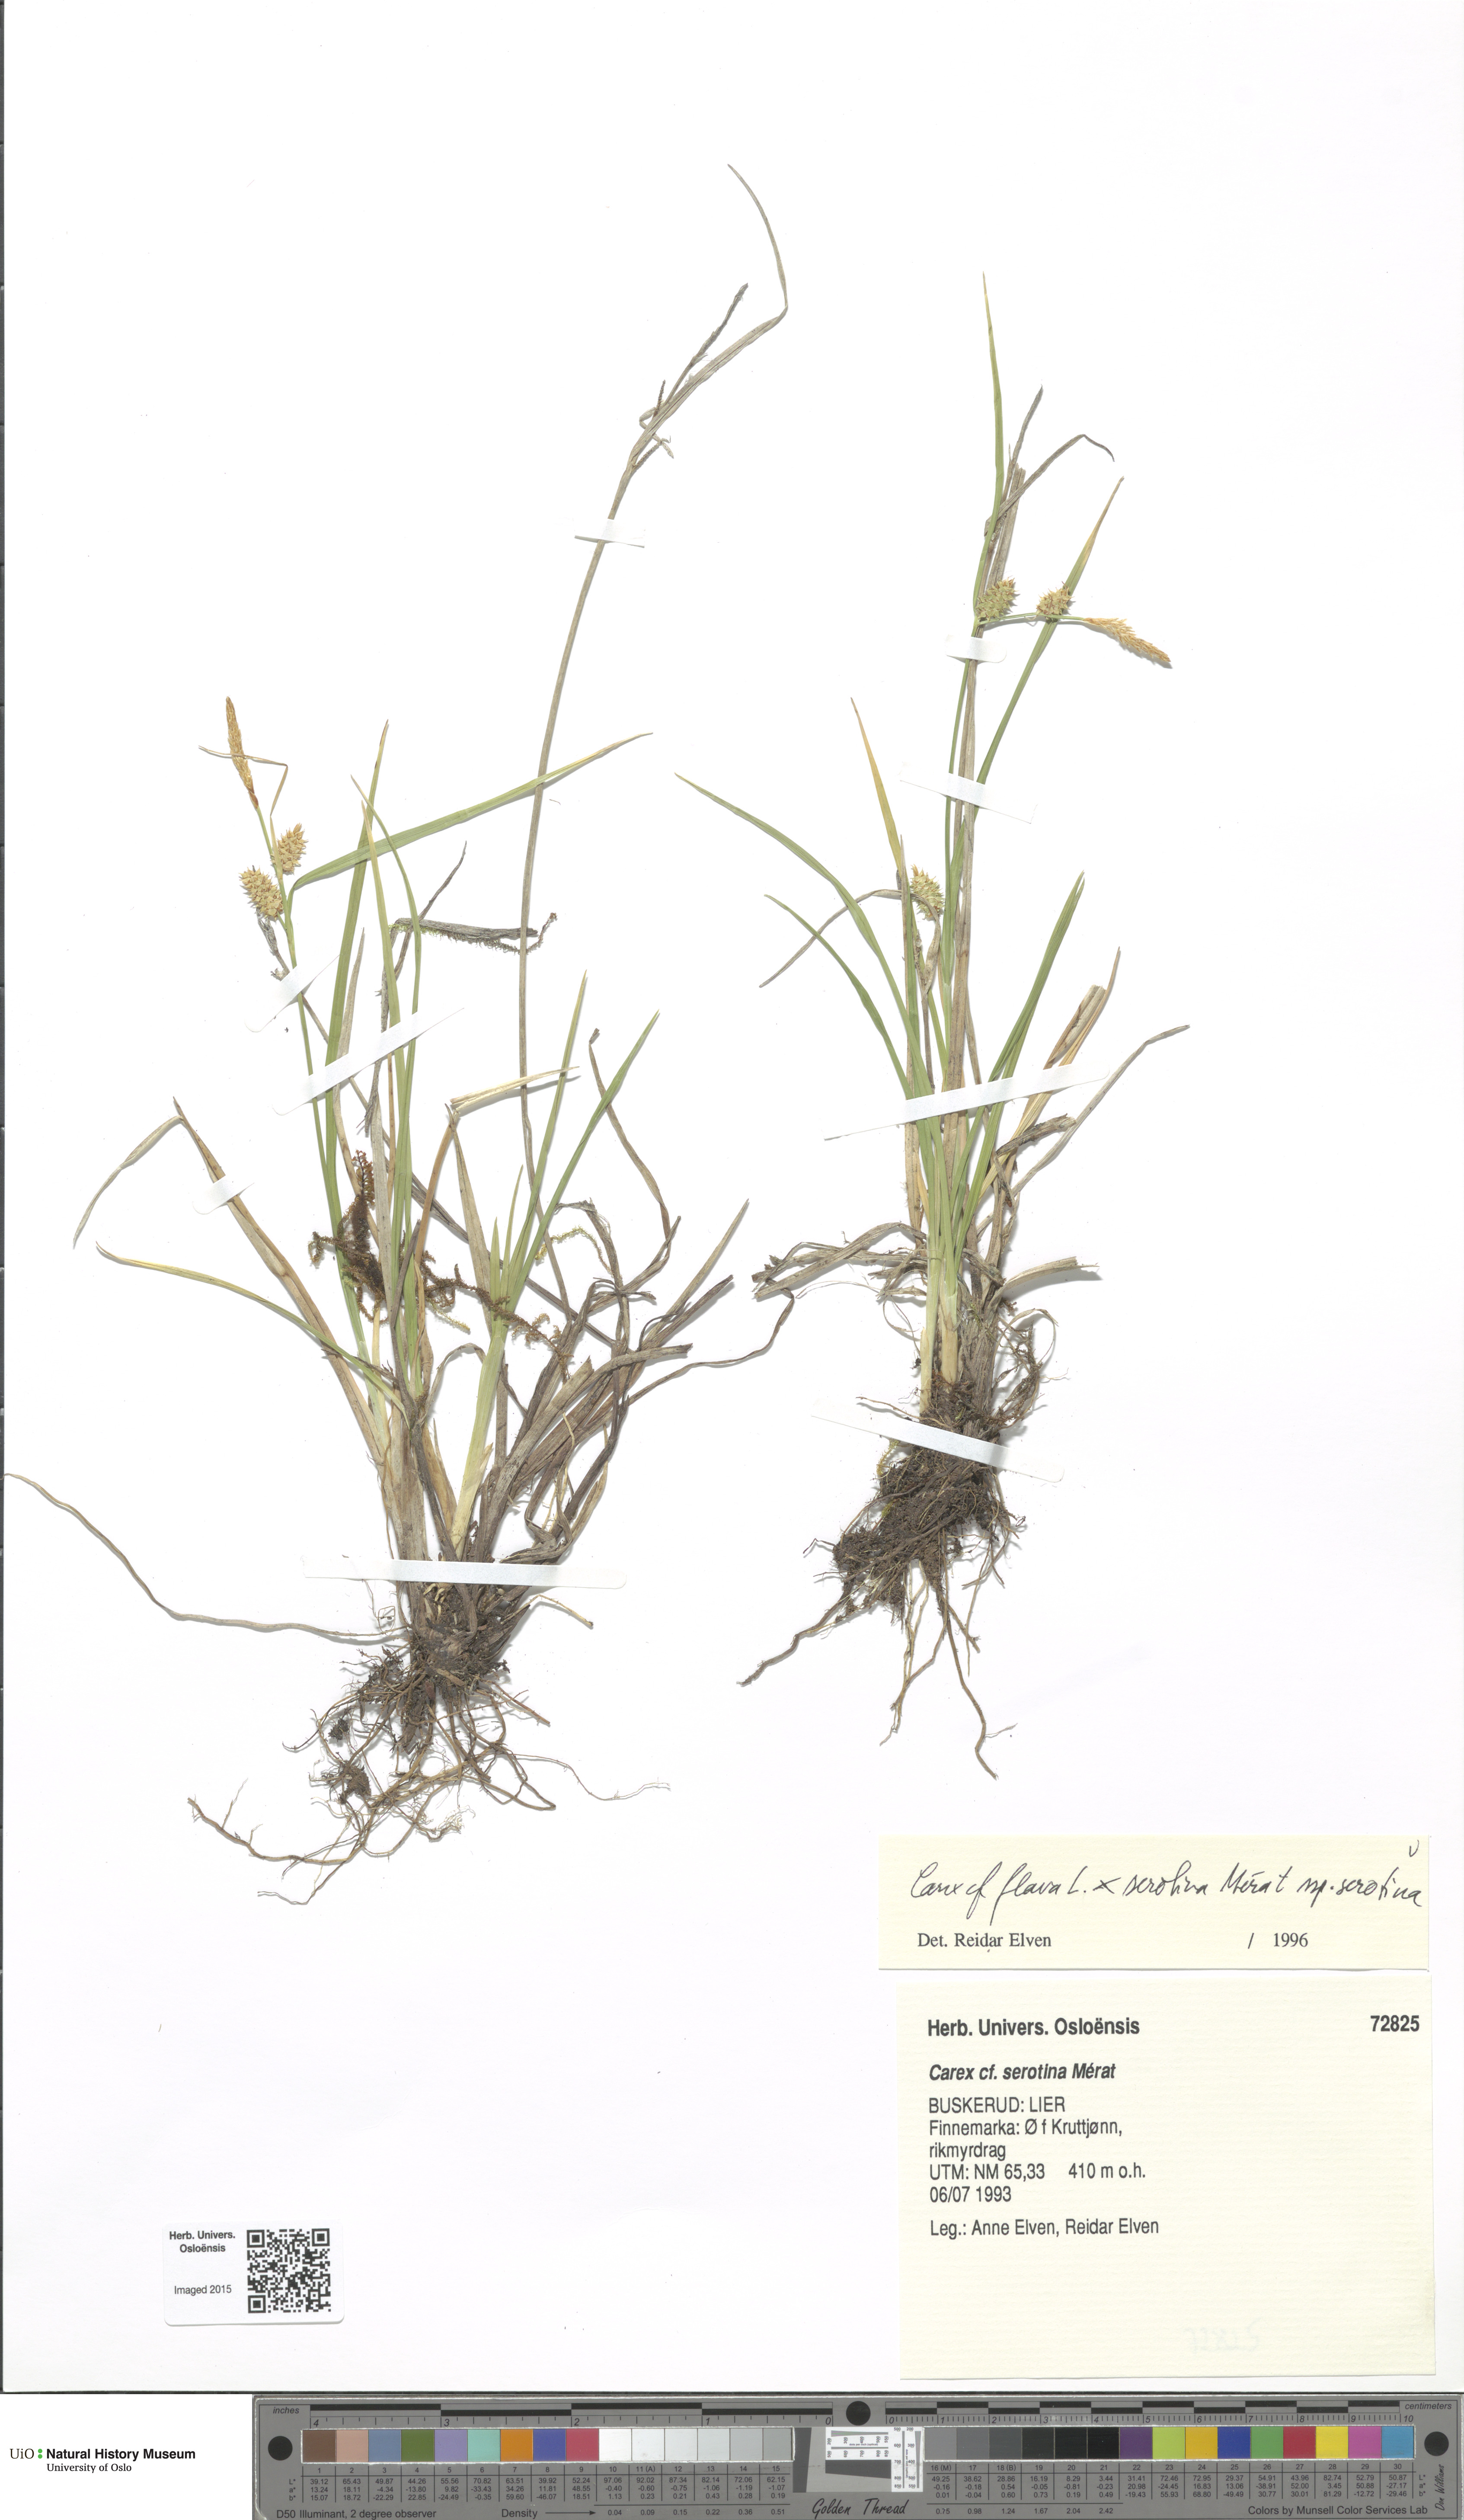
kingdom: Plantae
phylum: Tracheophyta
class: Liliopsida
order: Poales
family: Cyperaceae
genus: Carex
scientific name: Carex
